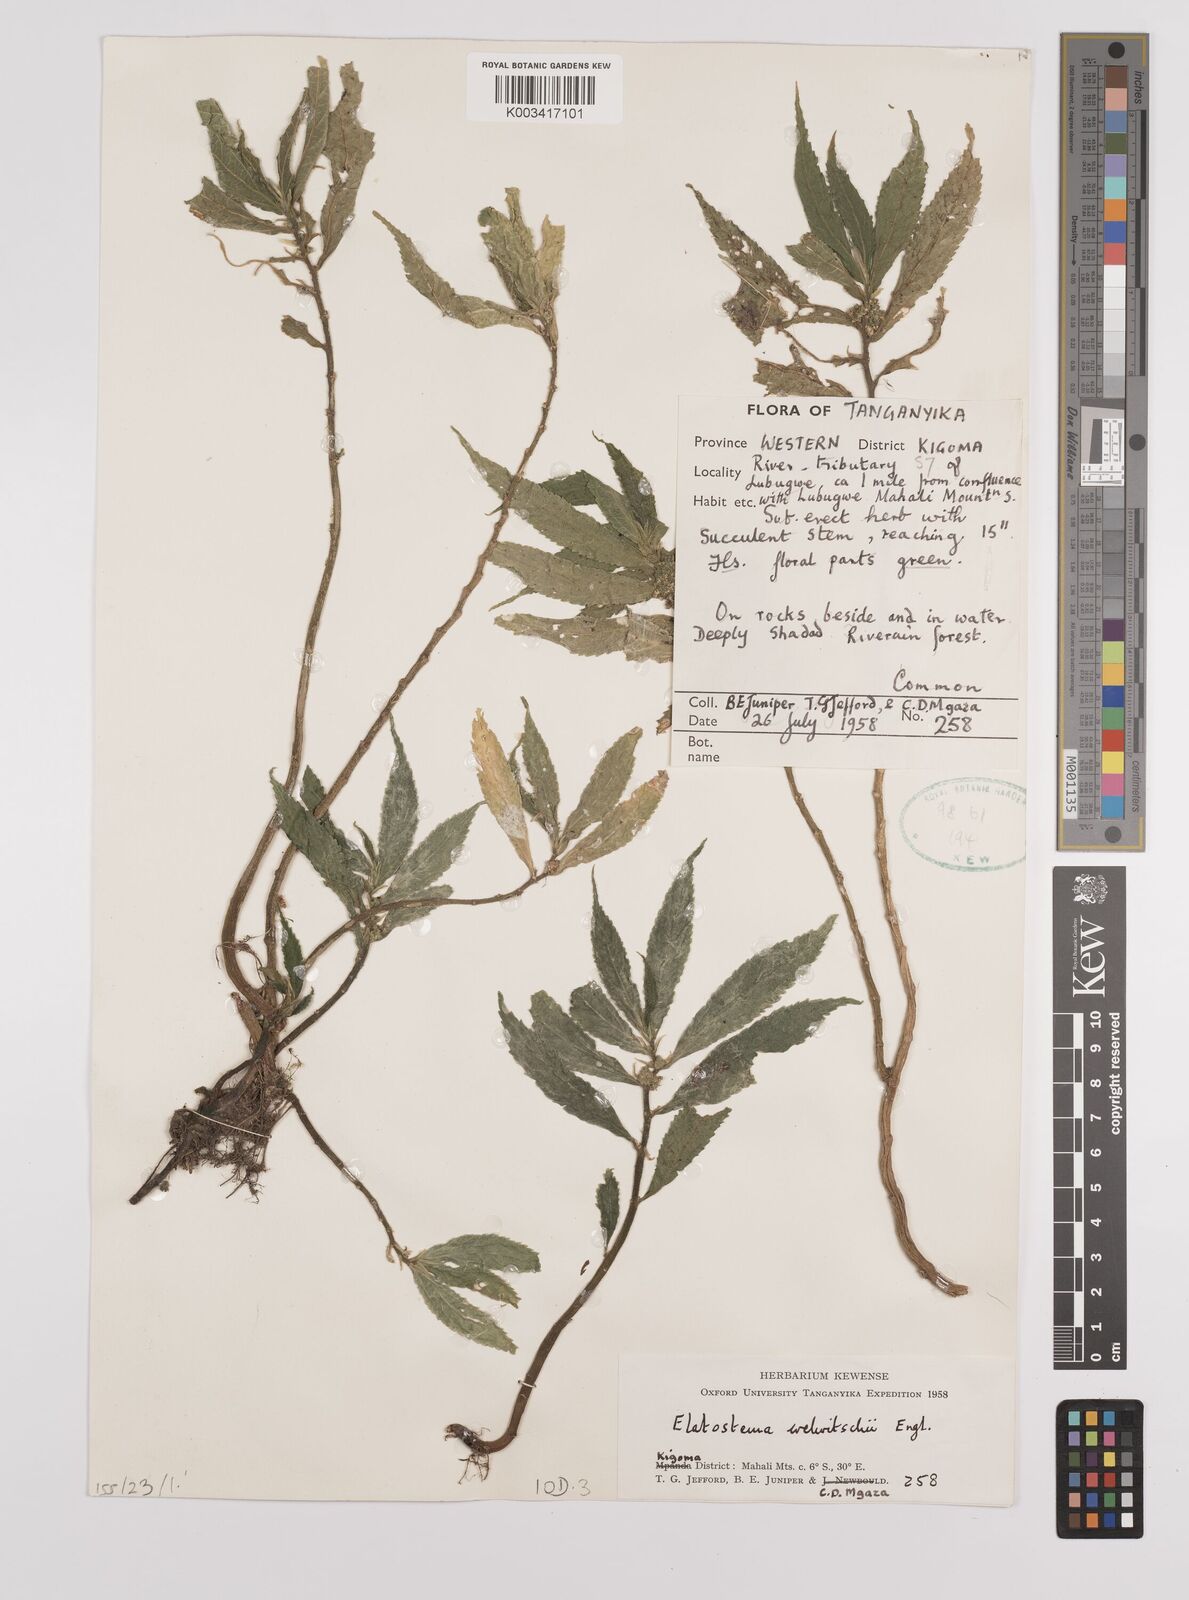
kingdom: Plantae
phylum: Tracheophyta
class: Magnoliopsida
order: Rosales
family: Urticaceae
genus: Elatostema
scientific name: Elatostema welwitschii
